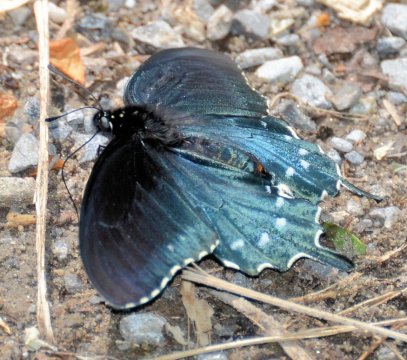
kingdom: Animalia
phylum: Arthropoda
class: Insecta
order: Lepidoptera
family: Papilionidae
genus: Battus
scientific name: Battus philenor
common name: Pipevine Swallowtail
